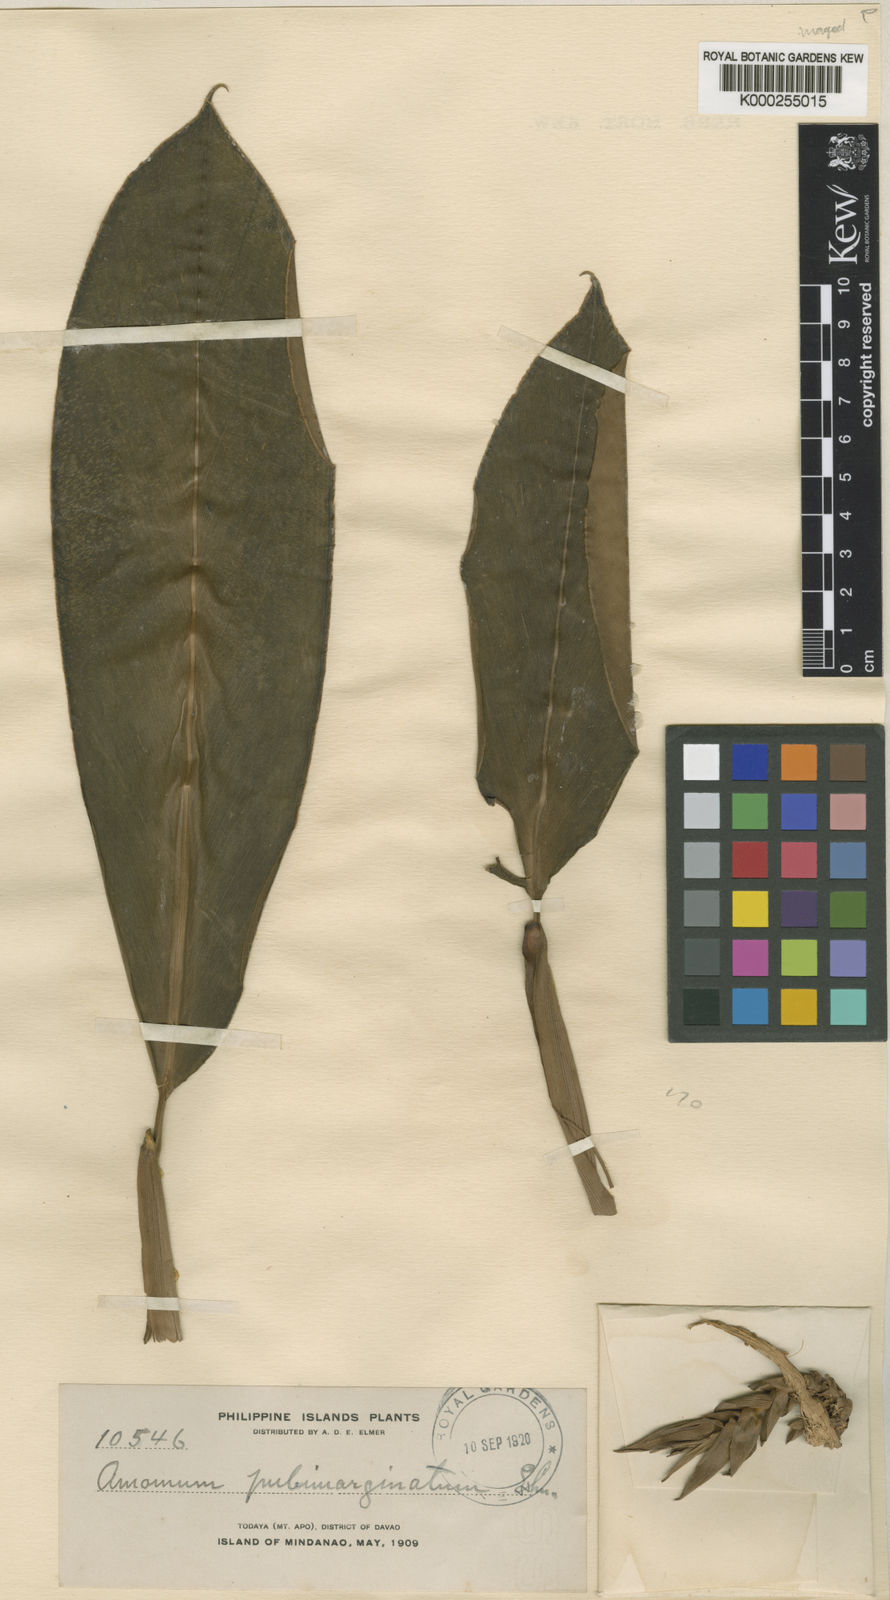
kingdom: Plantae
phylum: Tracheophyta
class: Liliopsida
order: Zingiberales
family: Zingiberaceae
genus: Etlingera
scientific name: Etlingera pubimarginata
